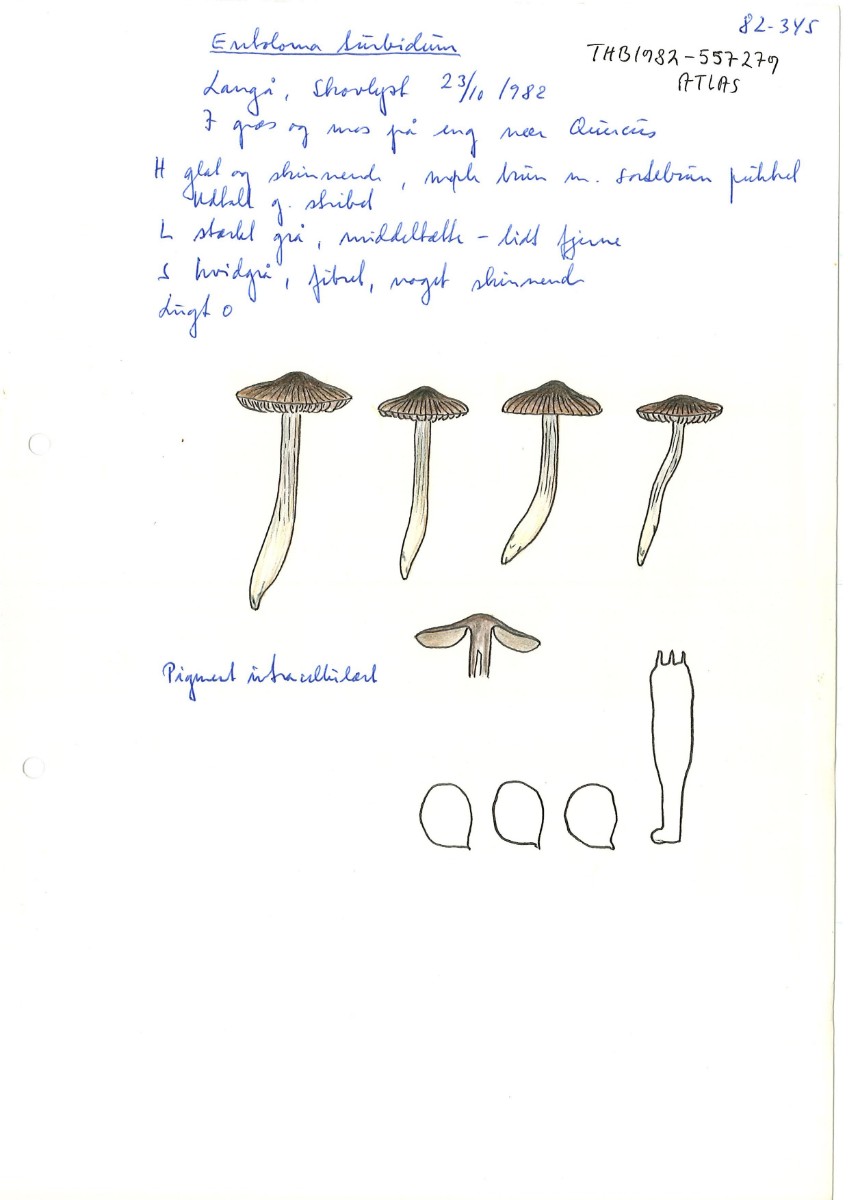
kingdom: Fungi
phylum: Basidiomycota
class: Agaricomycetes
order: Agaricales
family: Entolomataceae
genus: Entocybe
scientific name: Entocybe turbida
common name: plantage-rødblad
